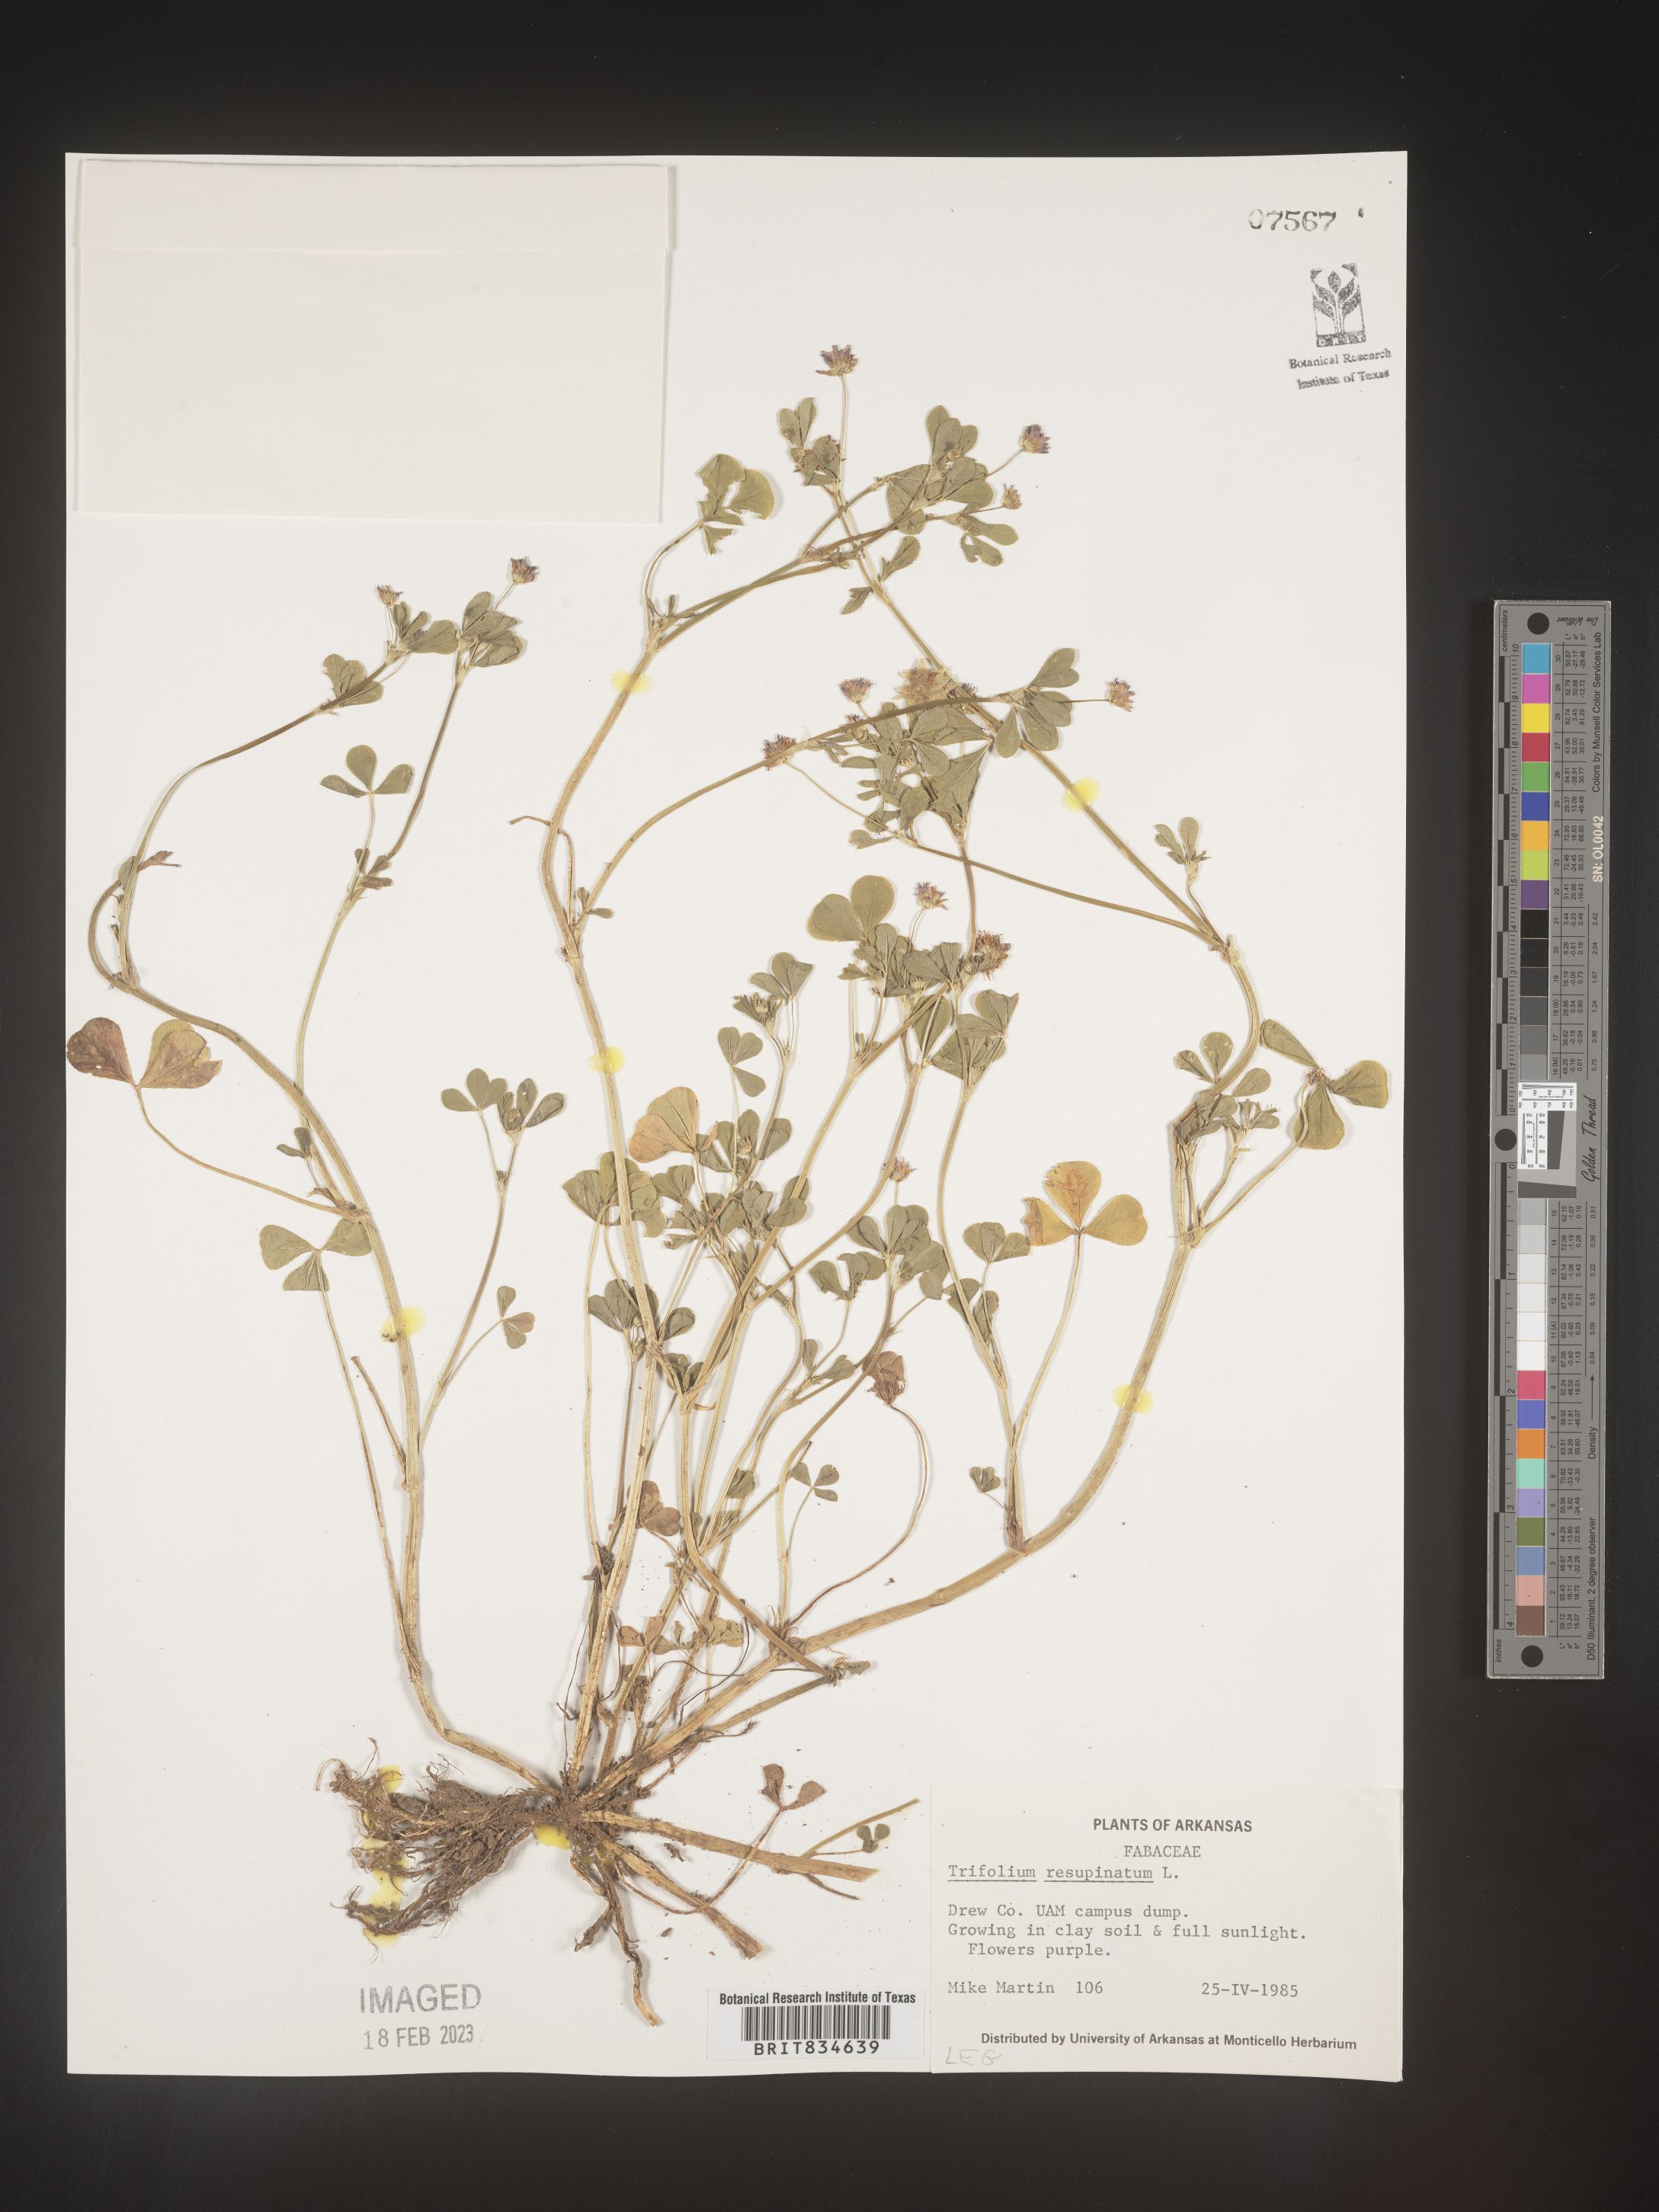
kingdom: Plantae
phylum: Tracheophyta
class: Magnoliopsida
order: Fabales
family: Fabaceae
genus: Trifolium
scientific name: Trifolium resupinatum
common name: Reversed clover
